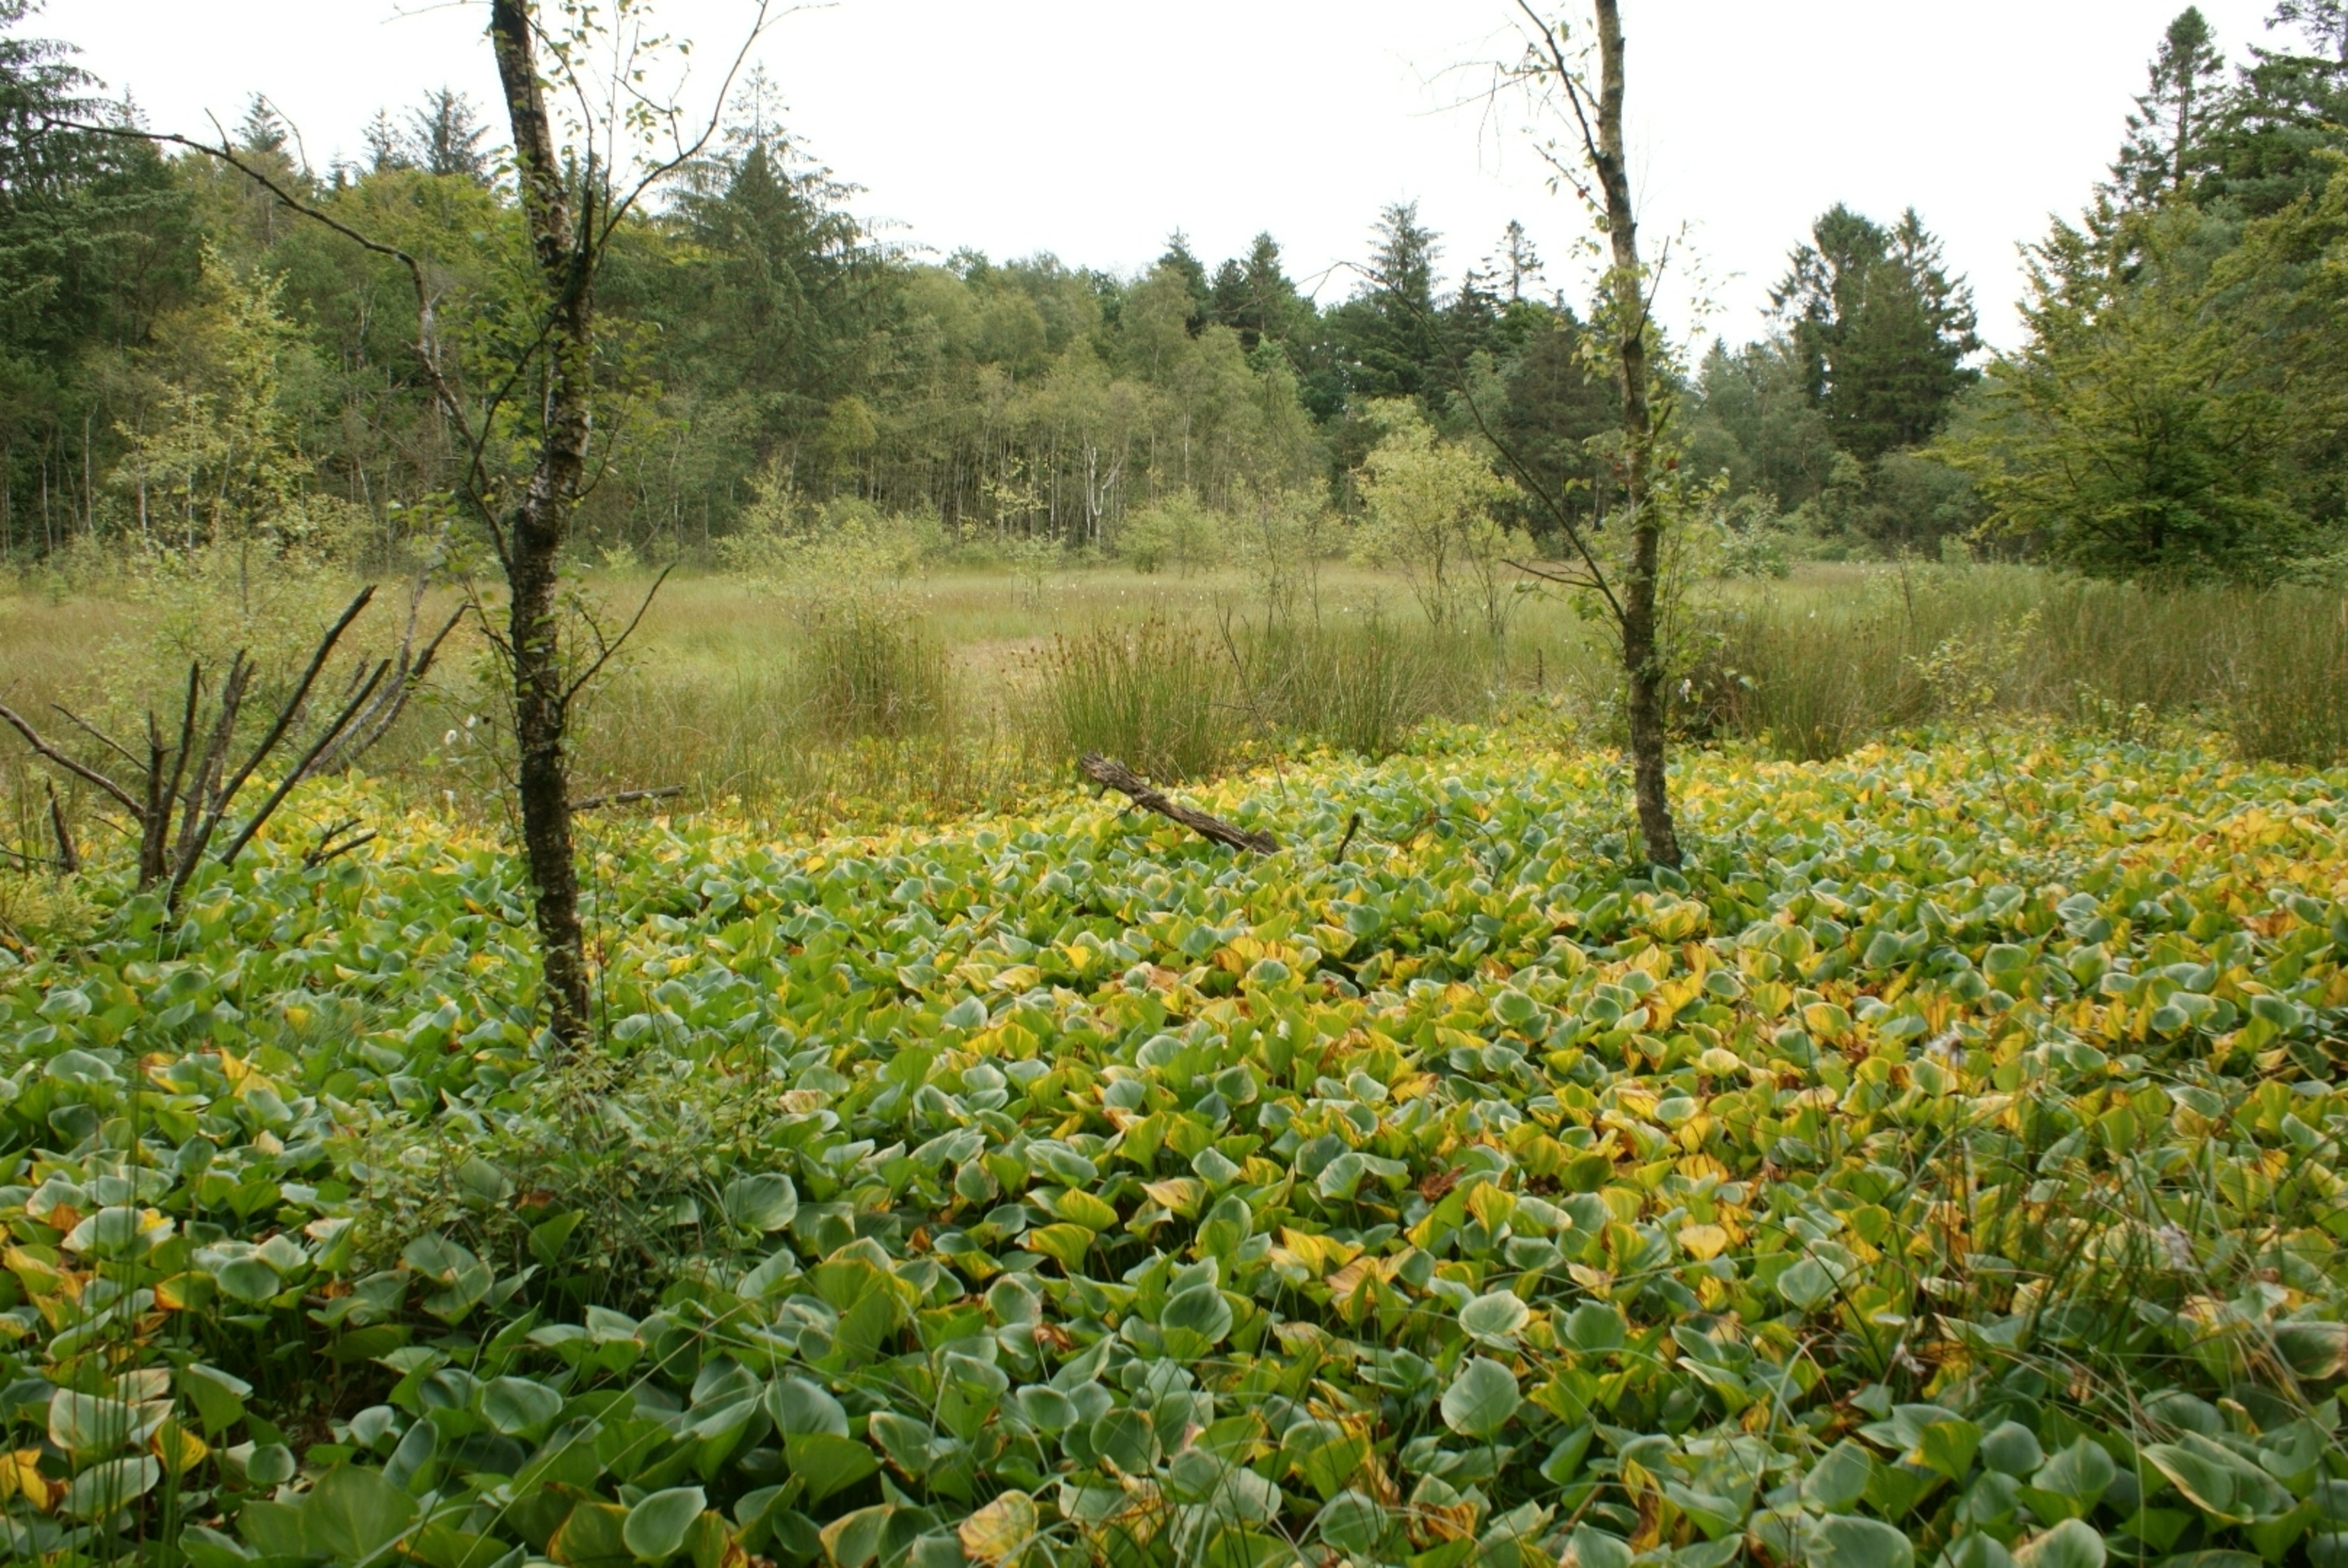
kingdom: Plantae
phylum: Tracheophyta
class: Liliopsida
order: Alismatales
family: Araceae
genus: Calla
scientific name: Calla palustris
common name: Kærmysse
